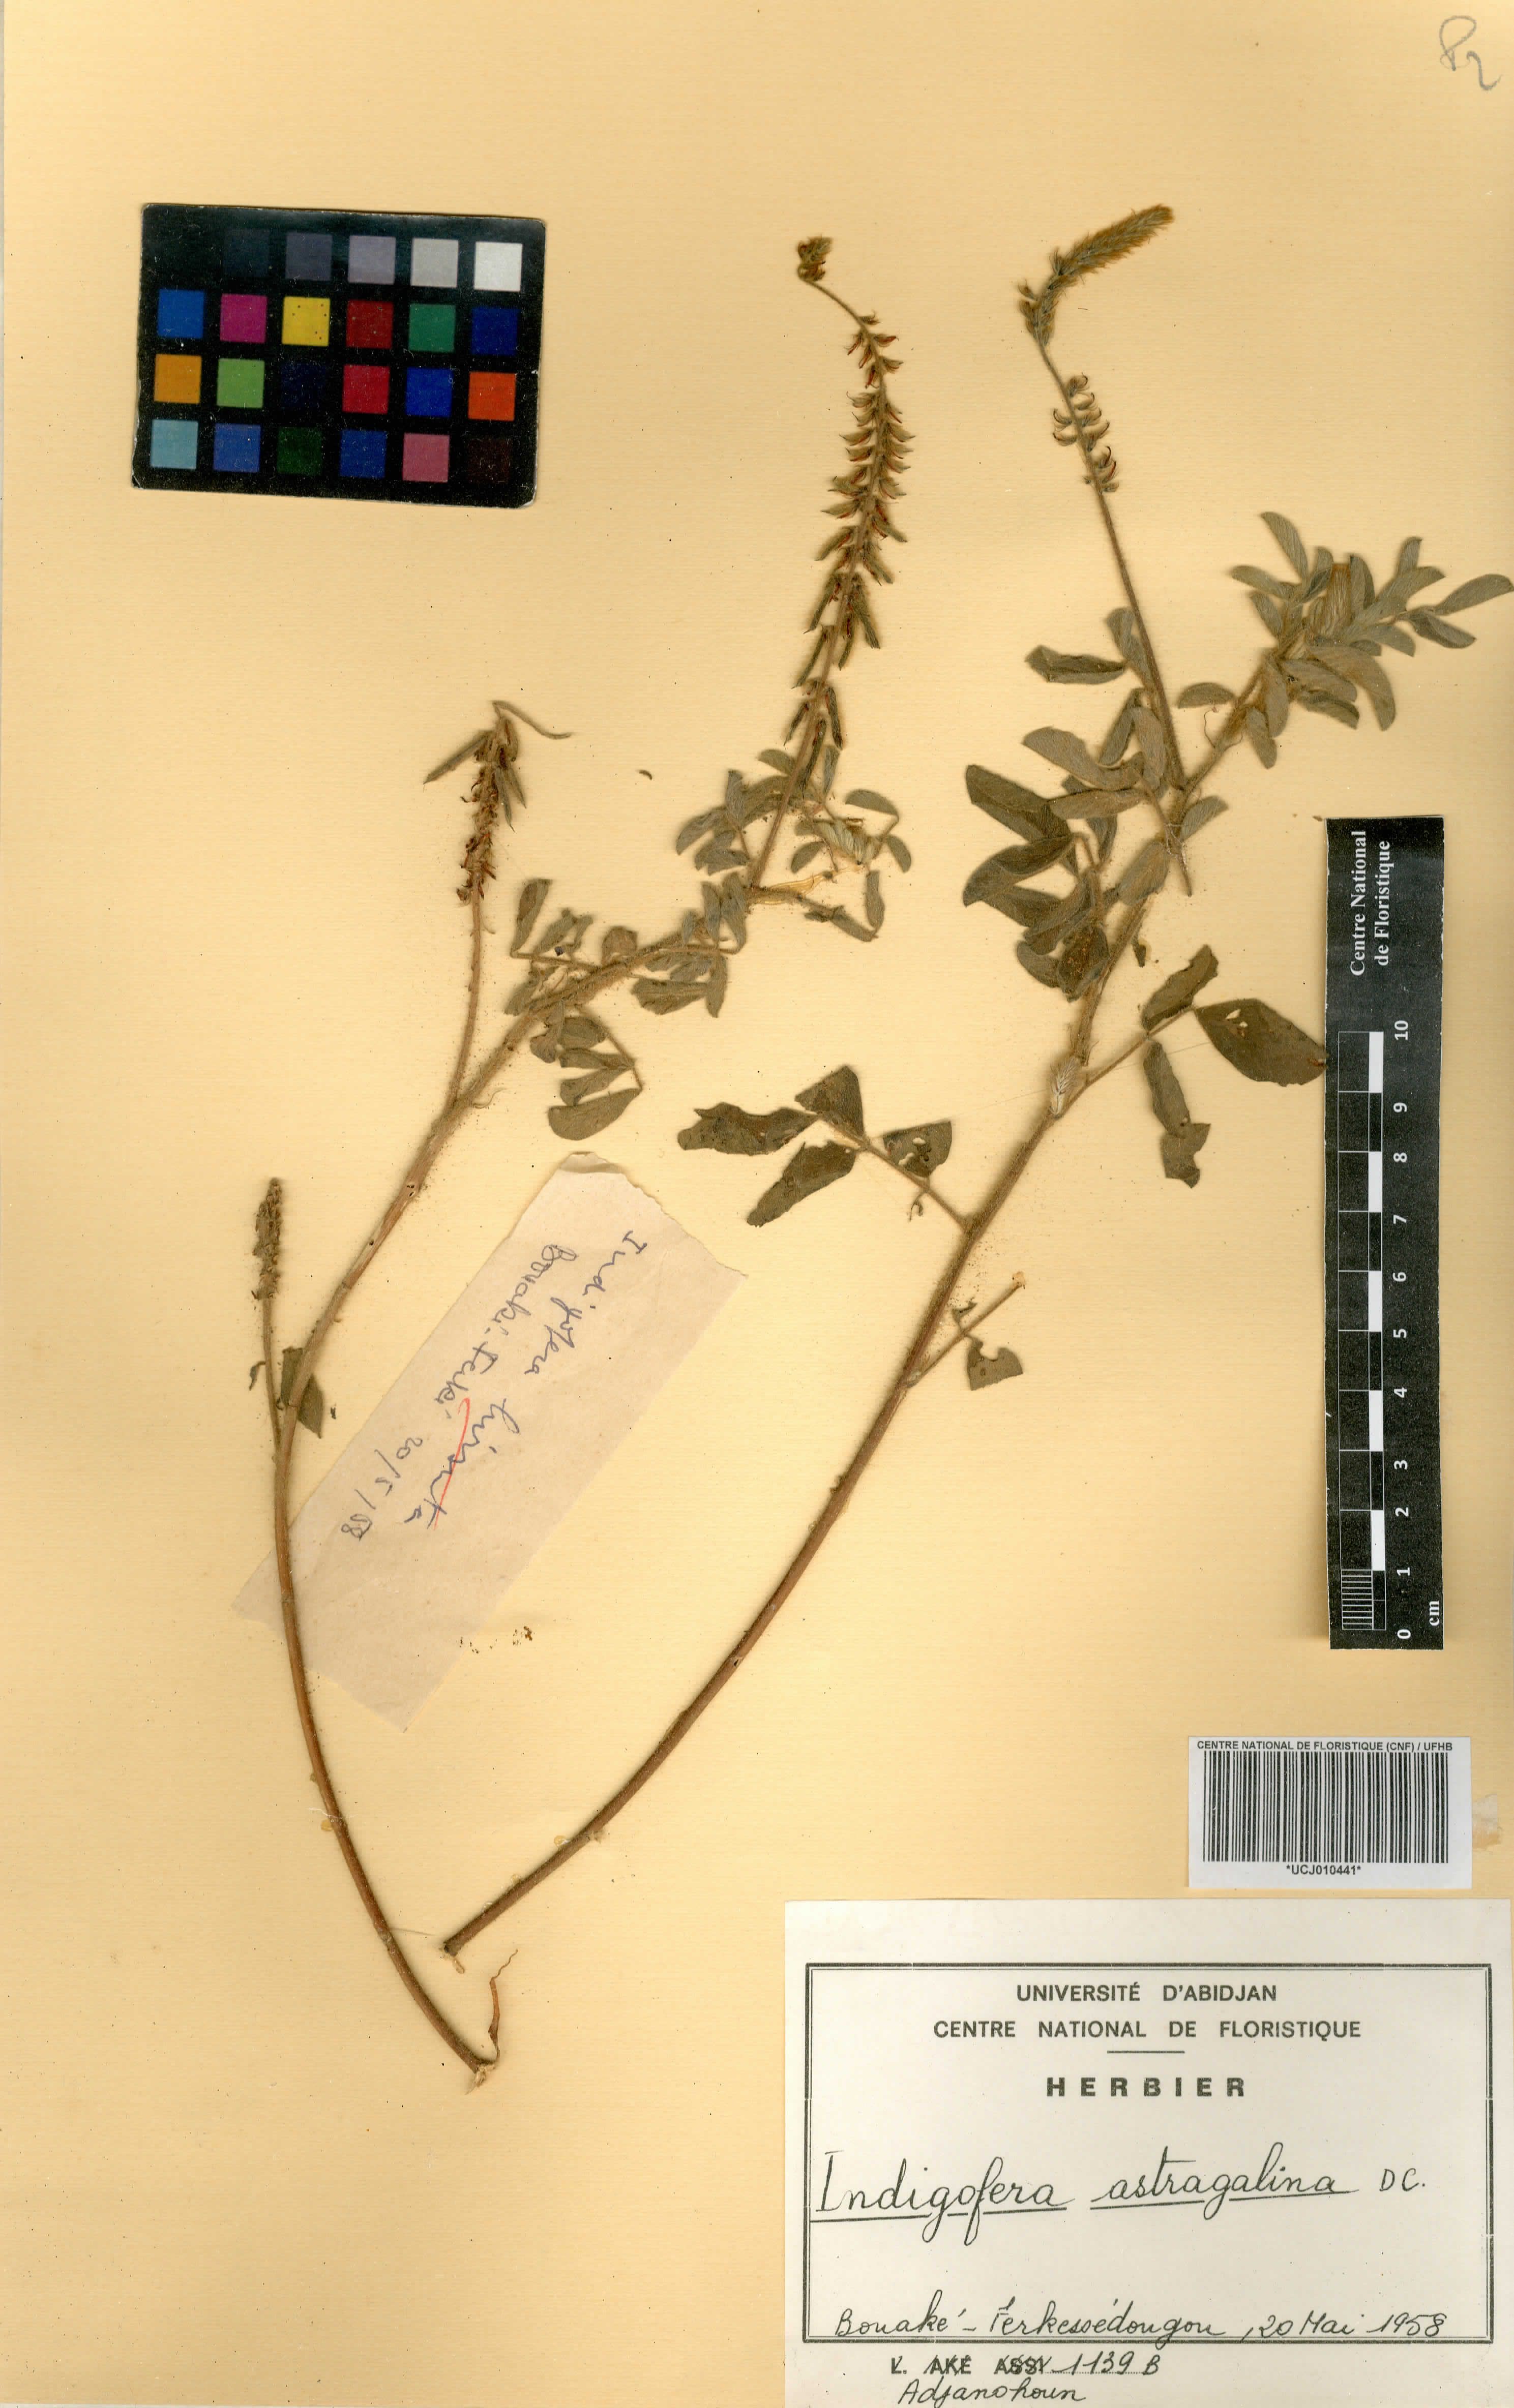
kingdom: Plantae
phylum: Tracheophyta
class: Magnoliopsida
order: Fabales
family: Fabaceae
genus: Indigofera
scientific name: Indigofera astragalina
